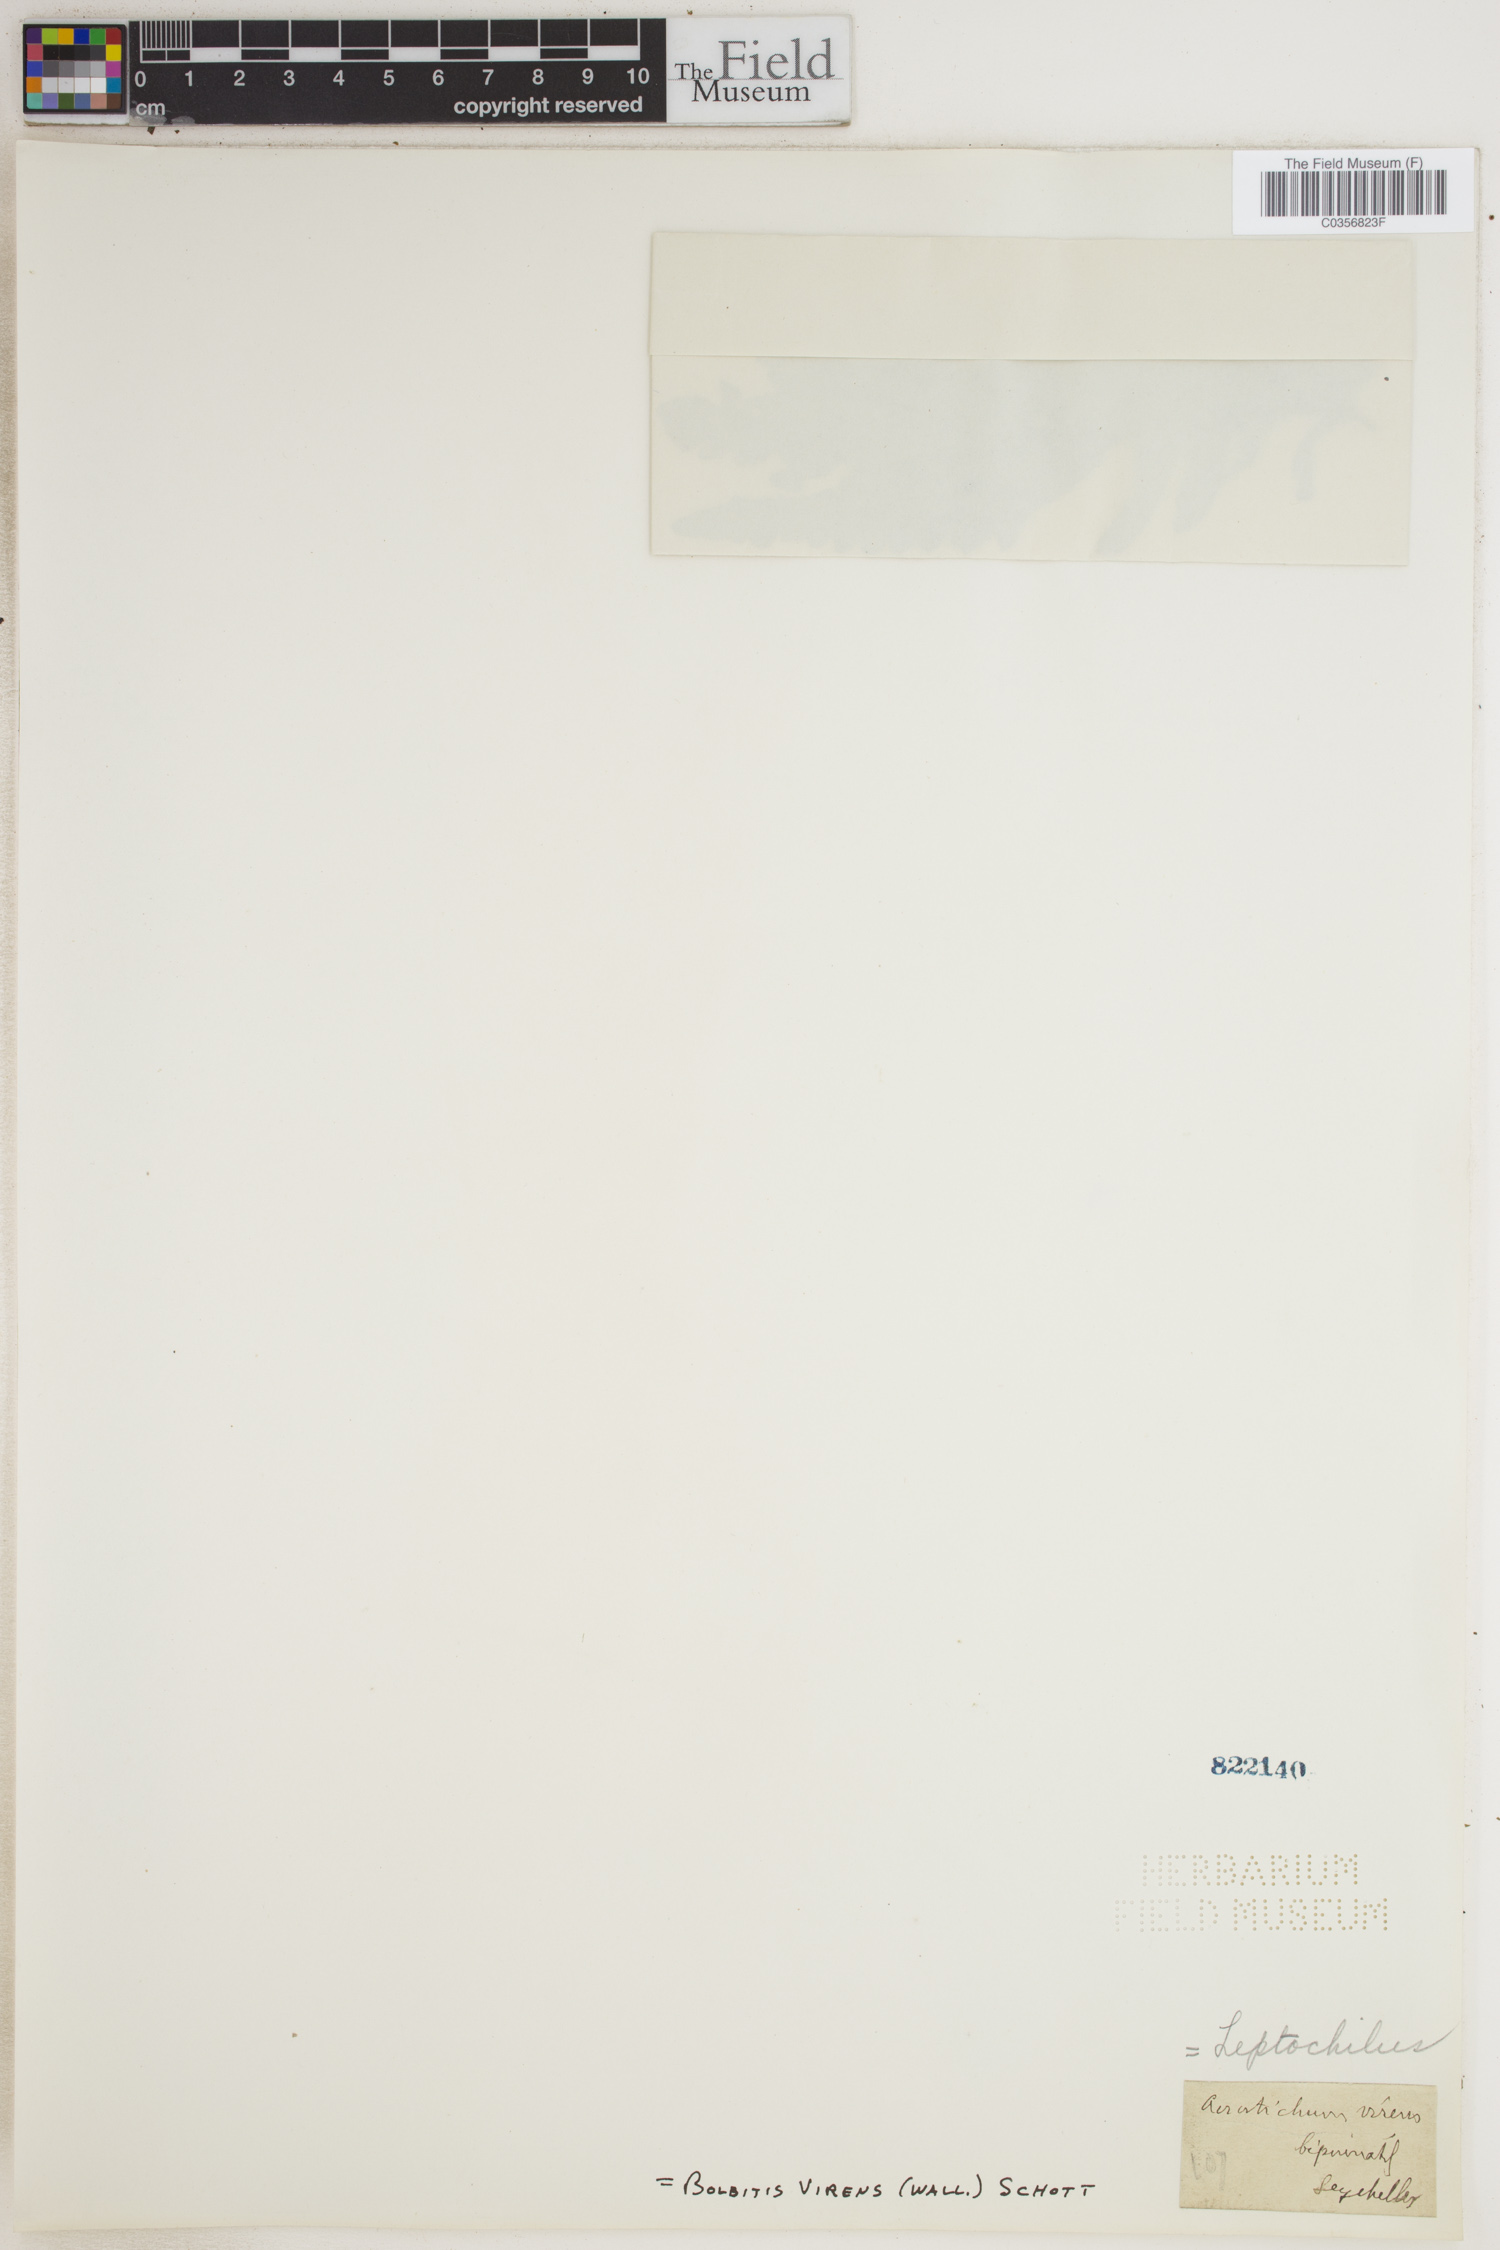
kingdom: Plantae
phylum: Tracheophyta
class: Polypodiopsida
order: Polypodiales
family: Dryopteridaceae
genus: Bolbitis
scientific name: Bolbitis virens
